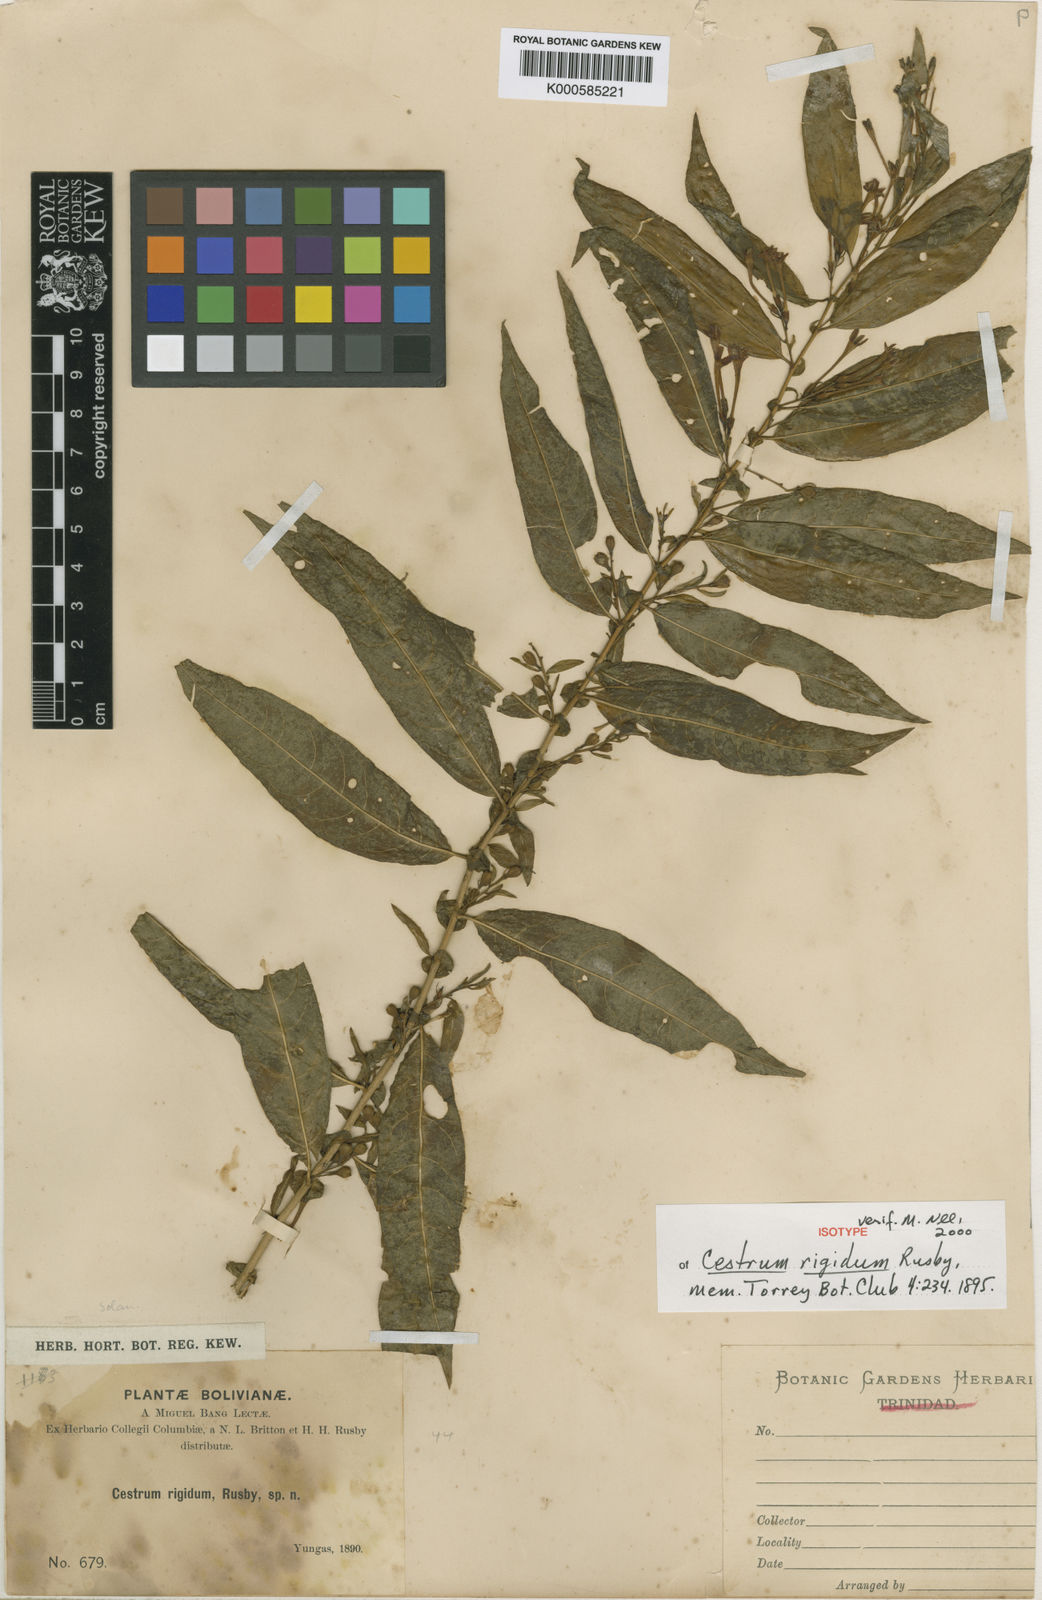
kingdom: Plantae
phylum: Tracheophyta
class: Magnoliopsida
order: Solanales
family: Solanaceae
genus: Cestrum
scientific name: Cestrum rigidum
